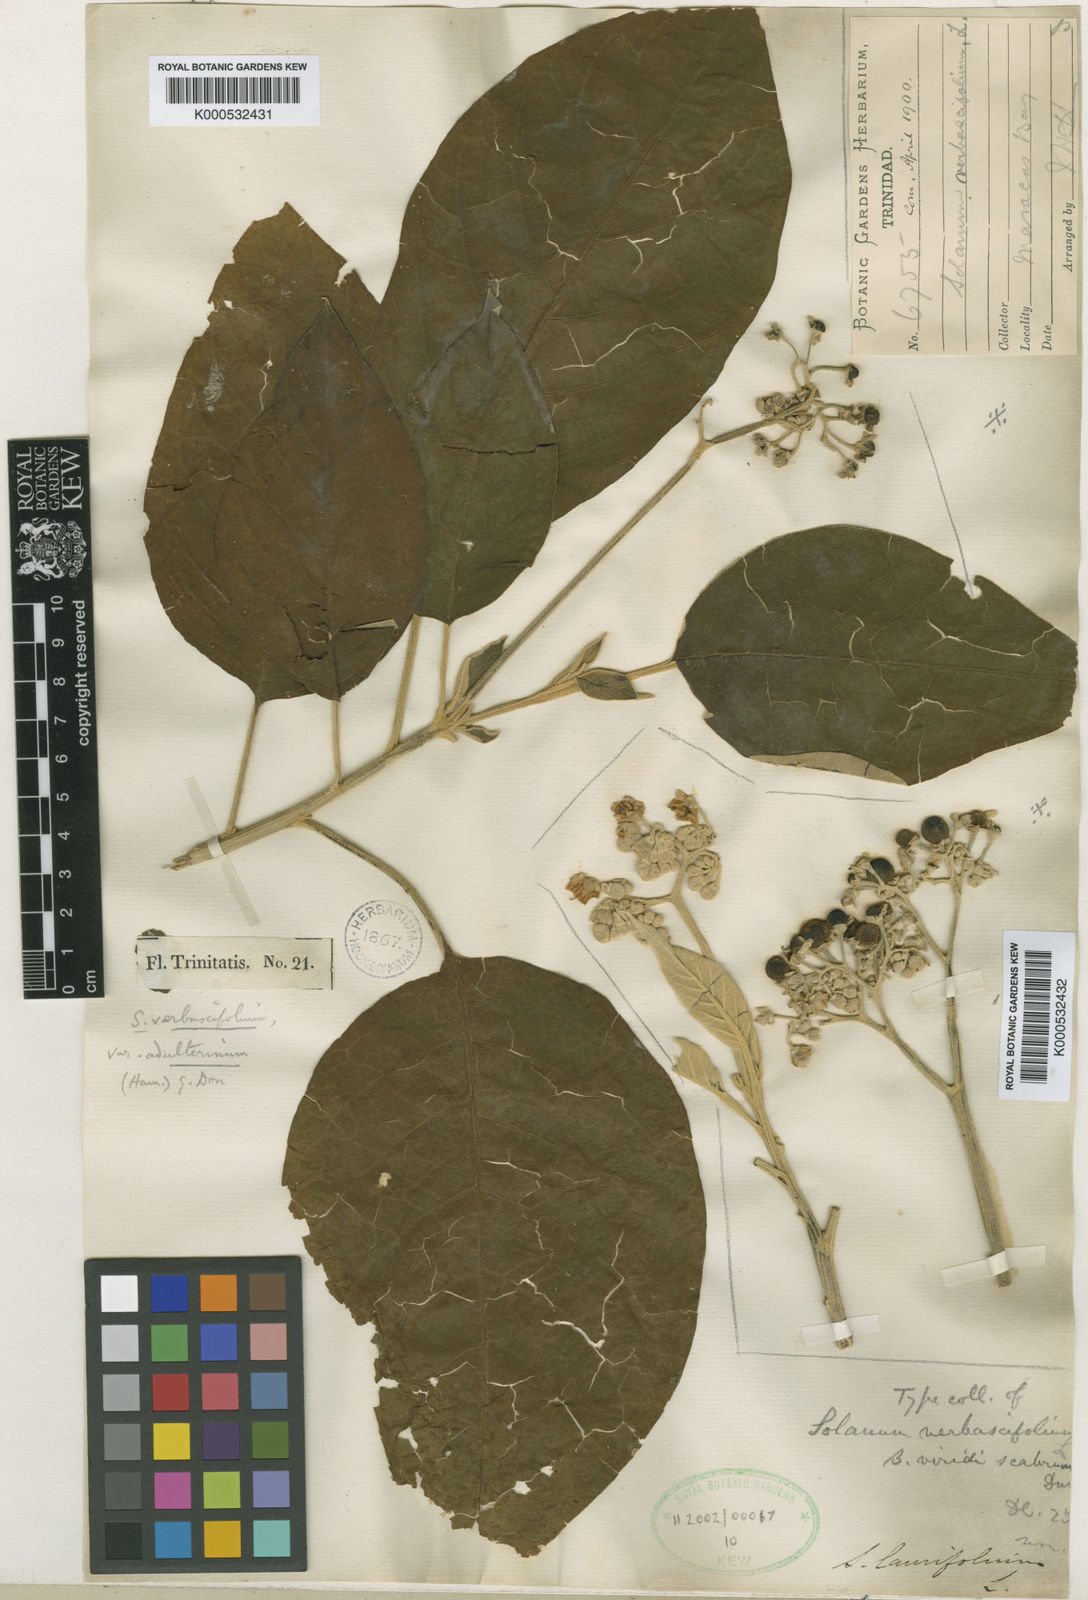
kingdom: Plantae
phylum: Tracheophyta
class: Magnoliopsida
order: Solanales
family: Solanaceae
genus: Solanum
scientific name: Solanum donianum
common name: Mullein nightshade
